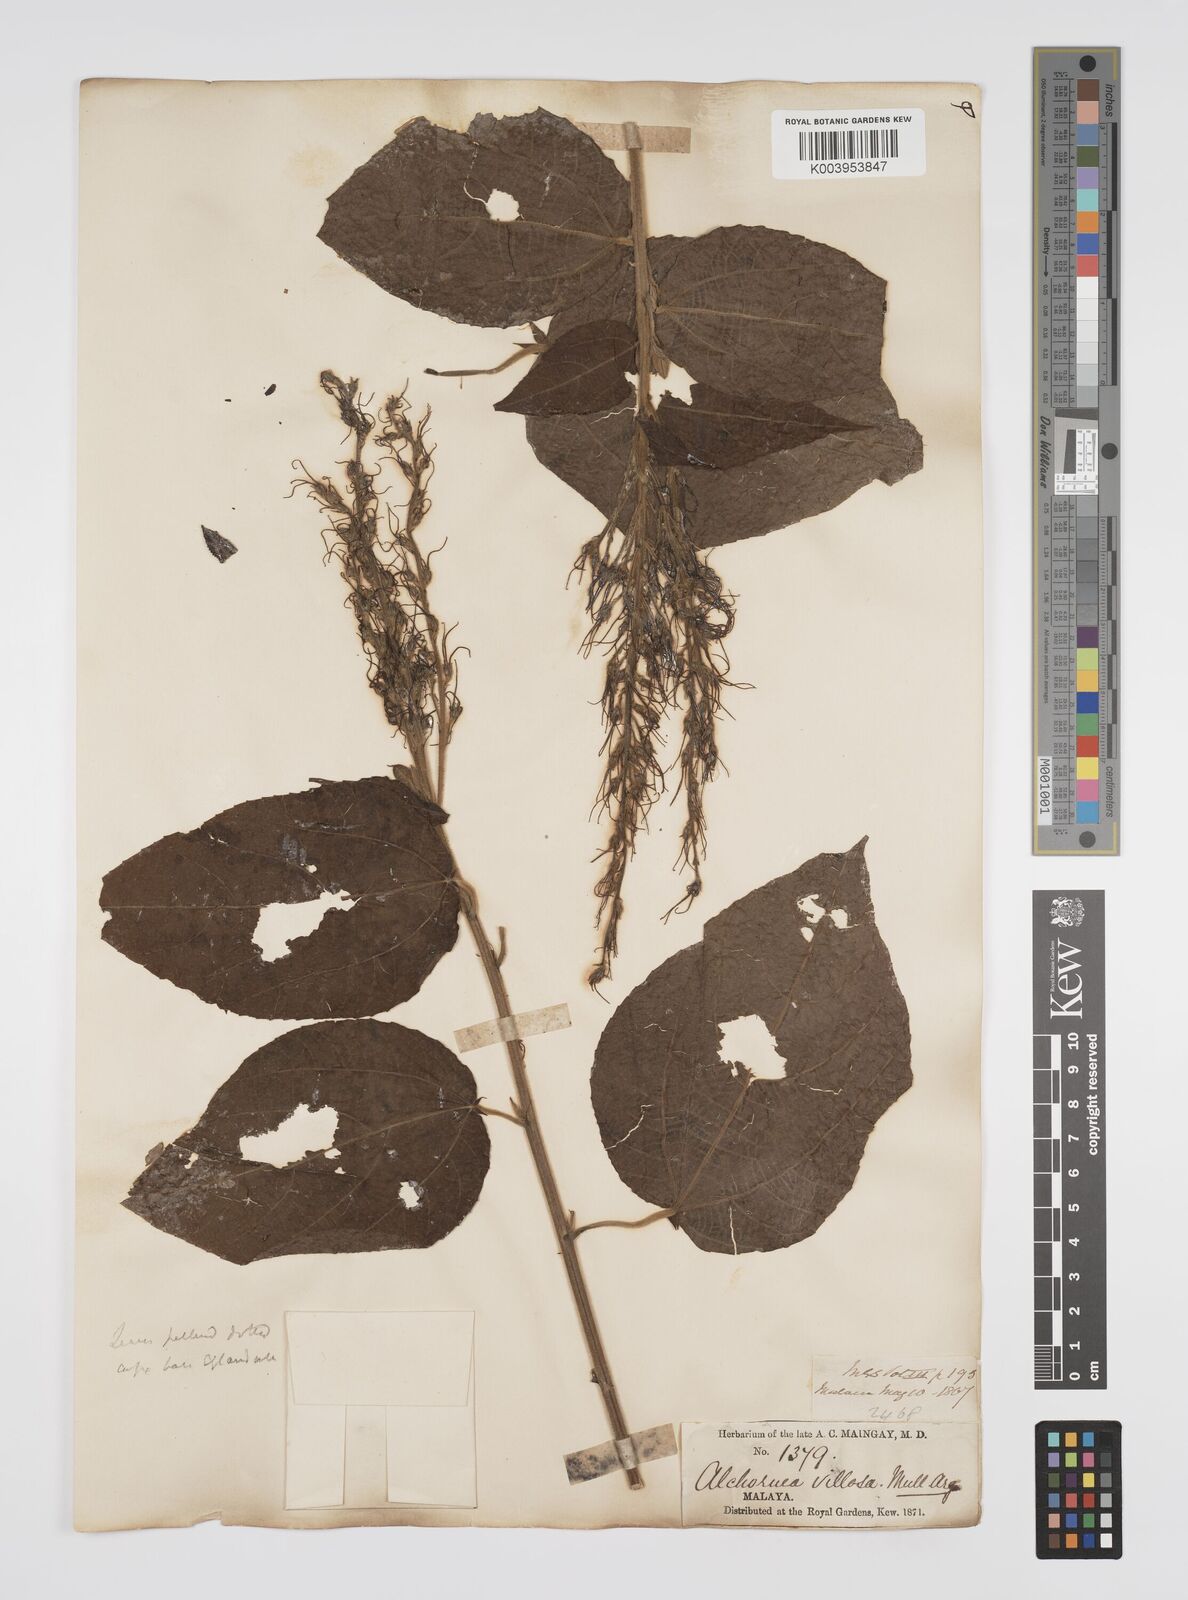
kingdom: Plantae
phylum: Tracheophyta
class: Magnoliopsida
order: Malpighiales
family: Euphorbiaceae
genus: Alchornea
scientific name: Alchornea tiliifolia
